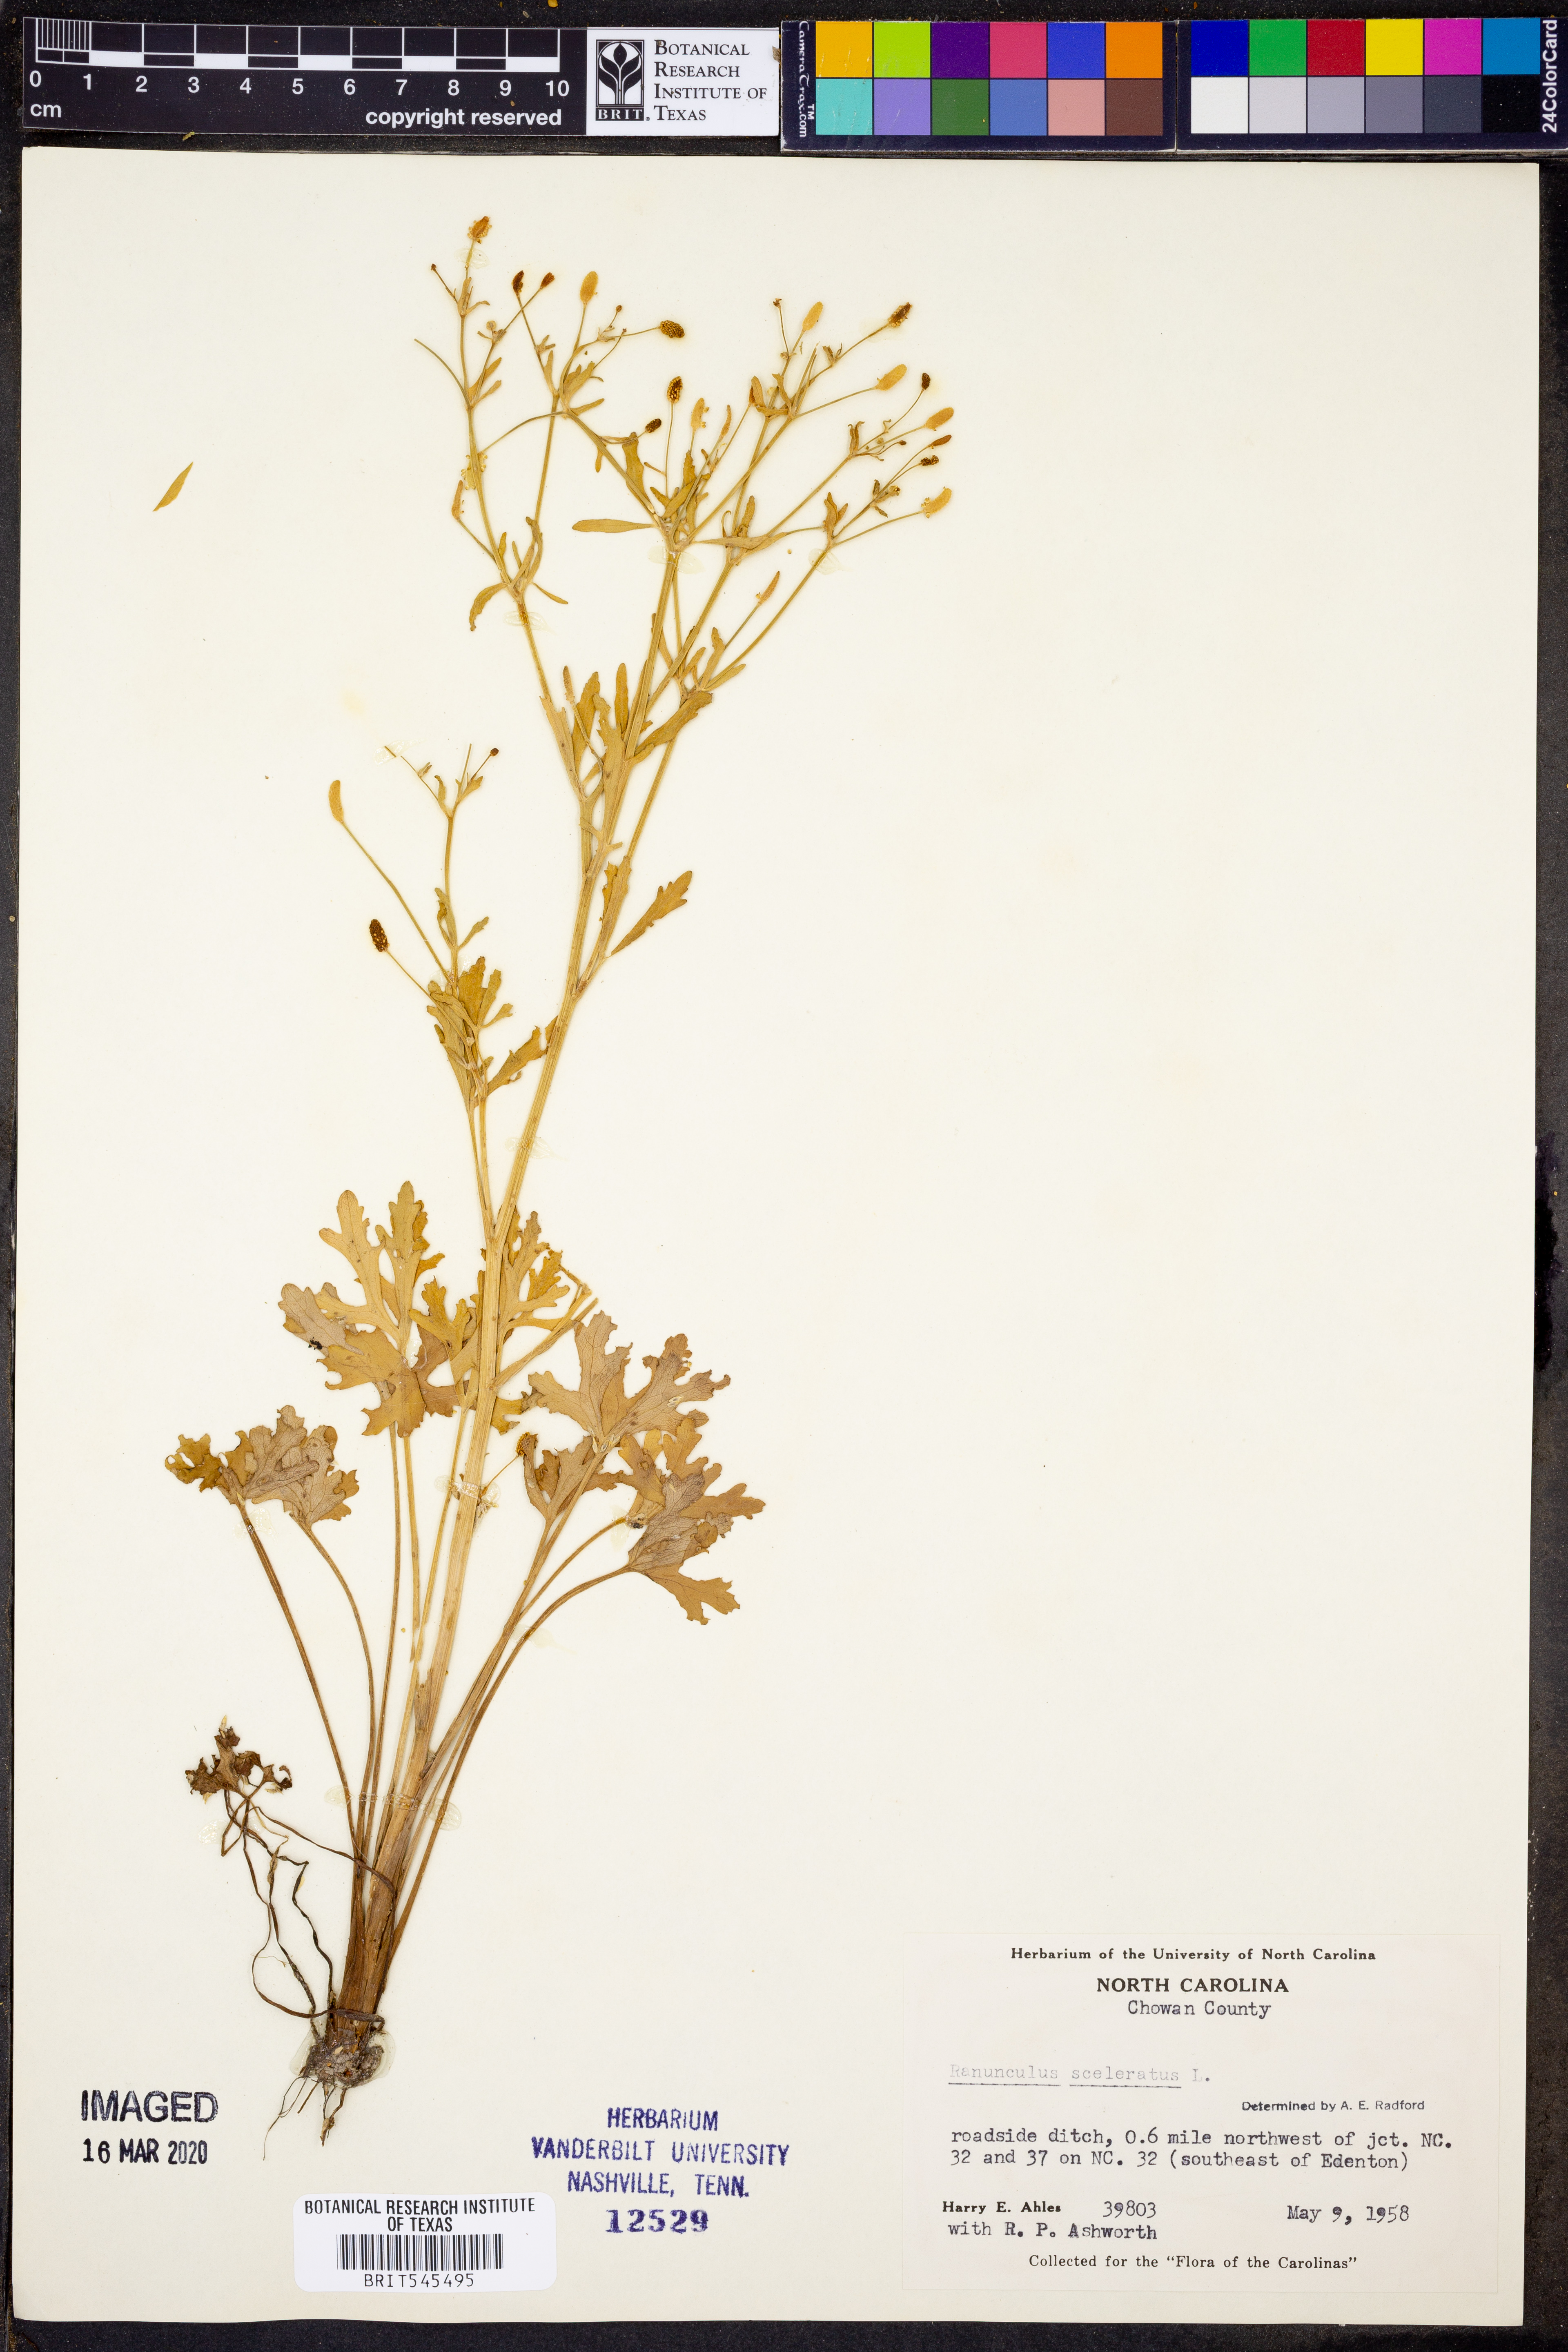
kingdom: Plantae
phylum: Tracheophyta
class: Magnoliopsida
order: Ranunculales
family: Ranunculaceae
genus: Ranunculus
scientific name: Ranunculus sceleratus
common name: Celery-leaved buttercup
